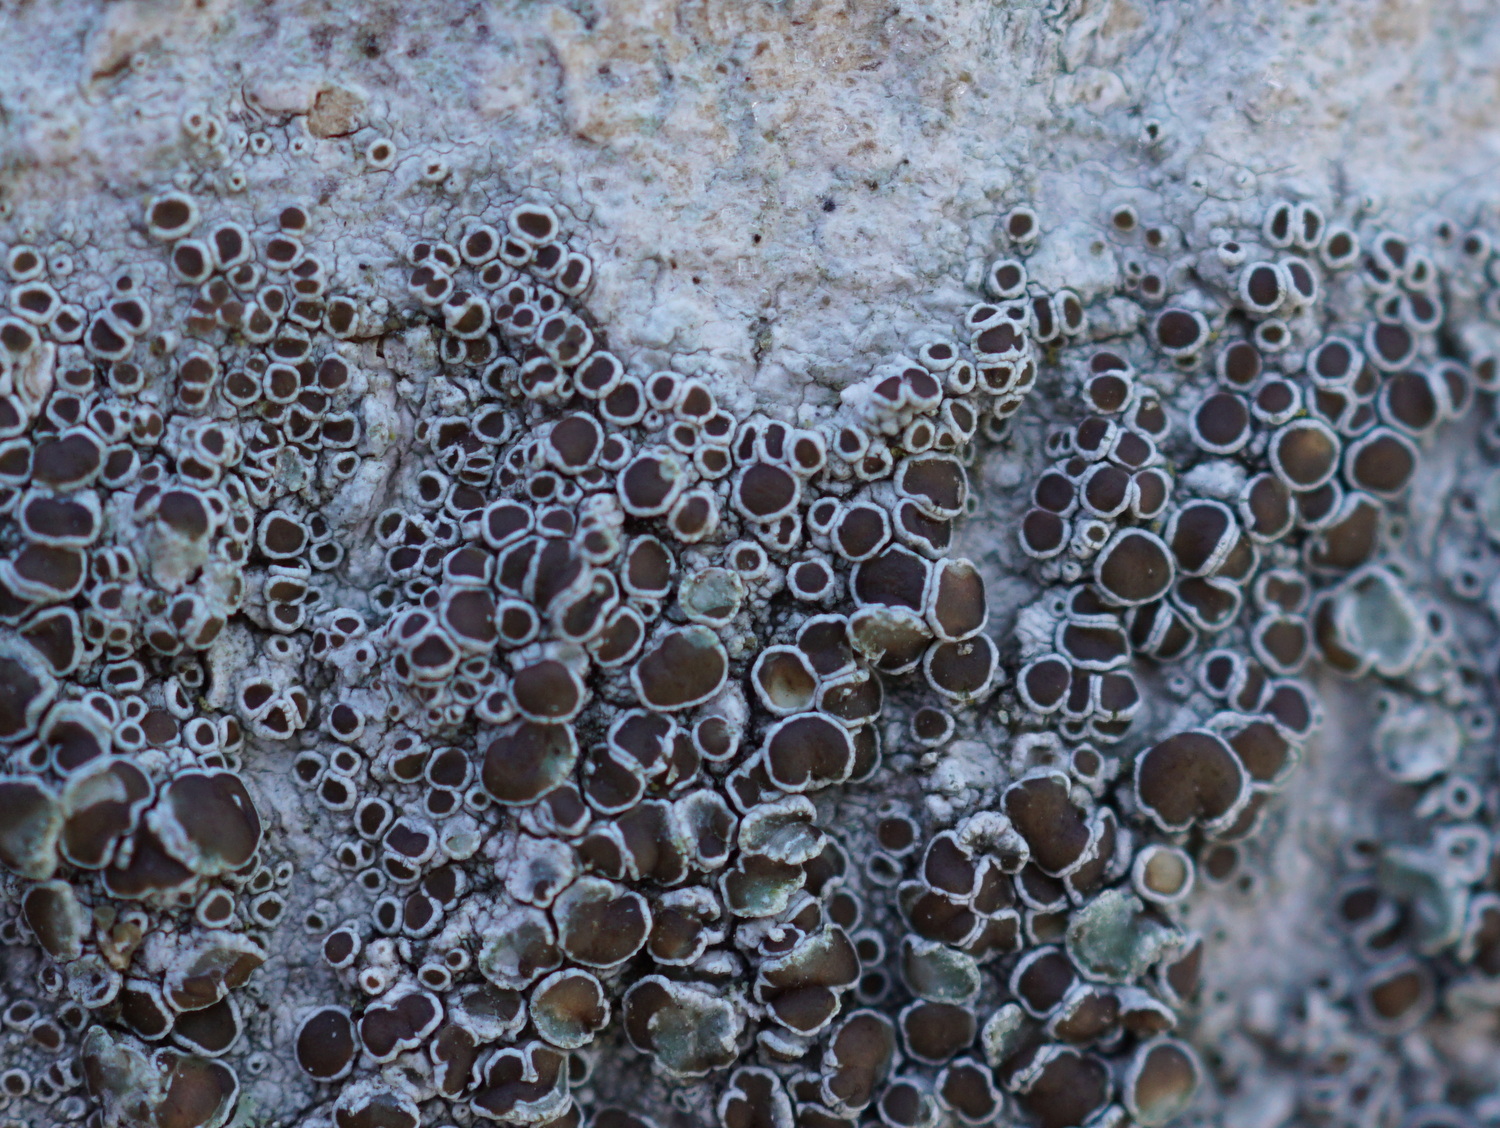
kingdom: Fungi
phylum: Ascomycota
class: Lecanoromycetes
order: Lecanorales
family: Lecanoraceae
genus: Lecanora
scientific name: Lecanora chlarotera
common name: brun kantskivelav
